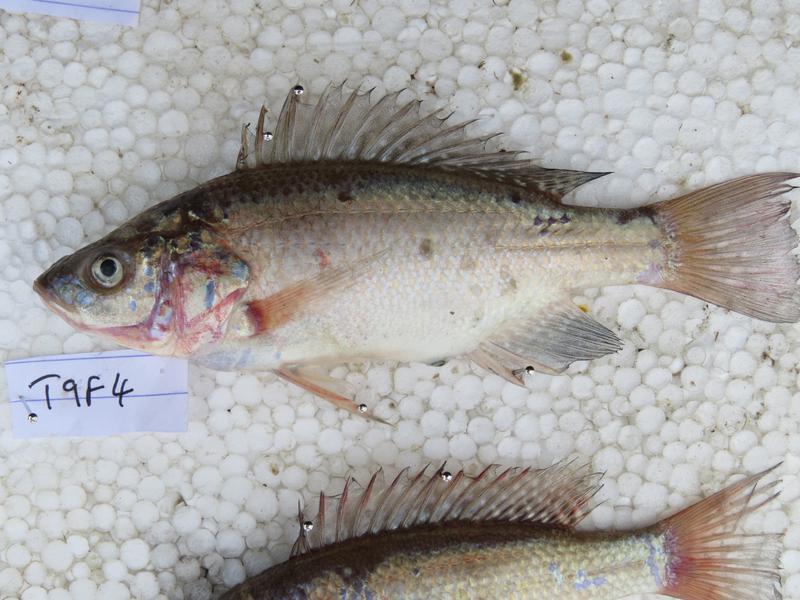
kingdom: Animalia
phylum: Chordata
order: Perciformes
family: Cichlidae
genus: Oreochromis
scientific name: Oreochromis amphimelas
